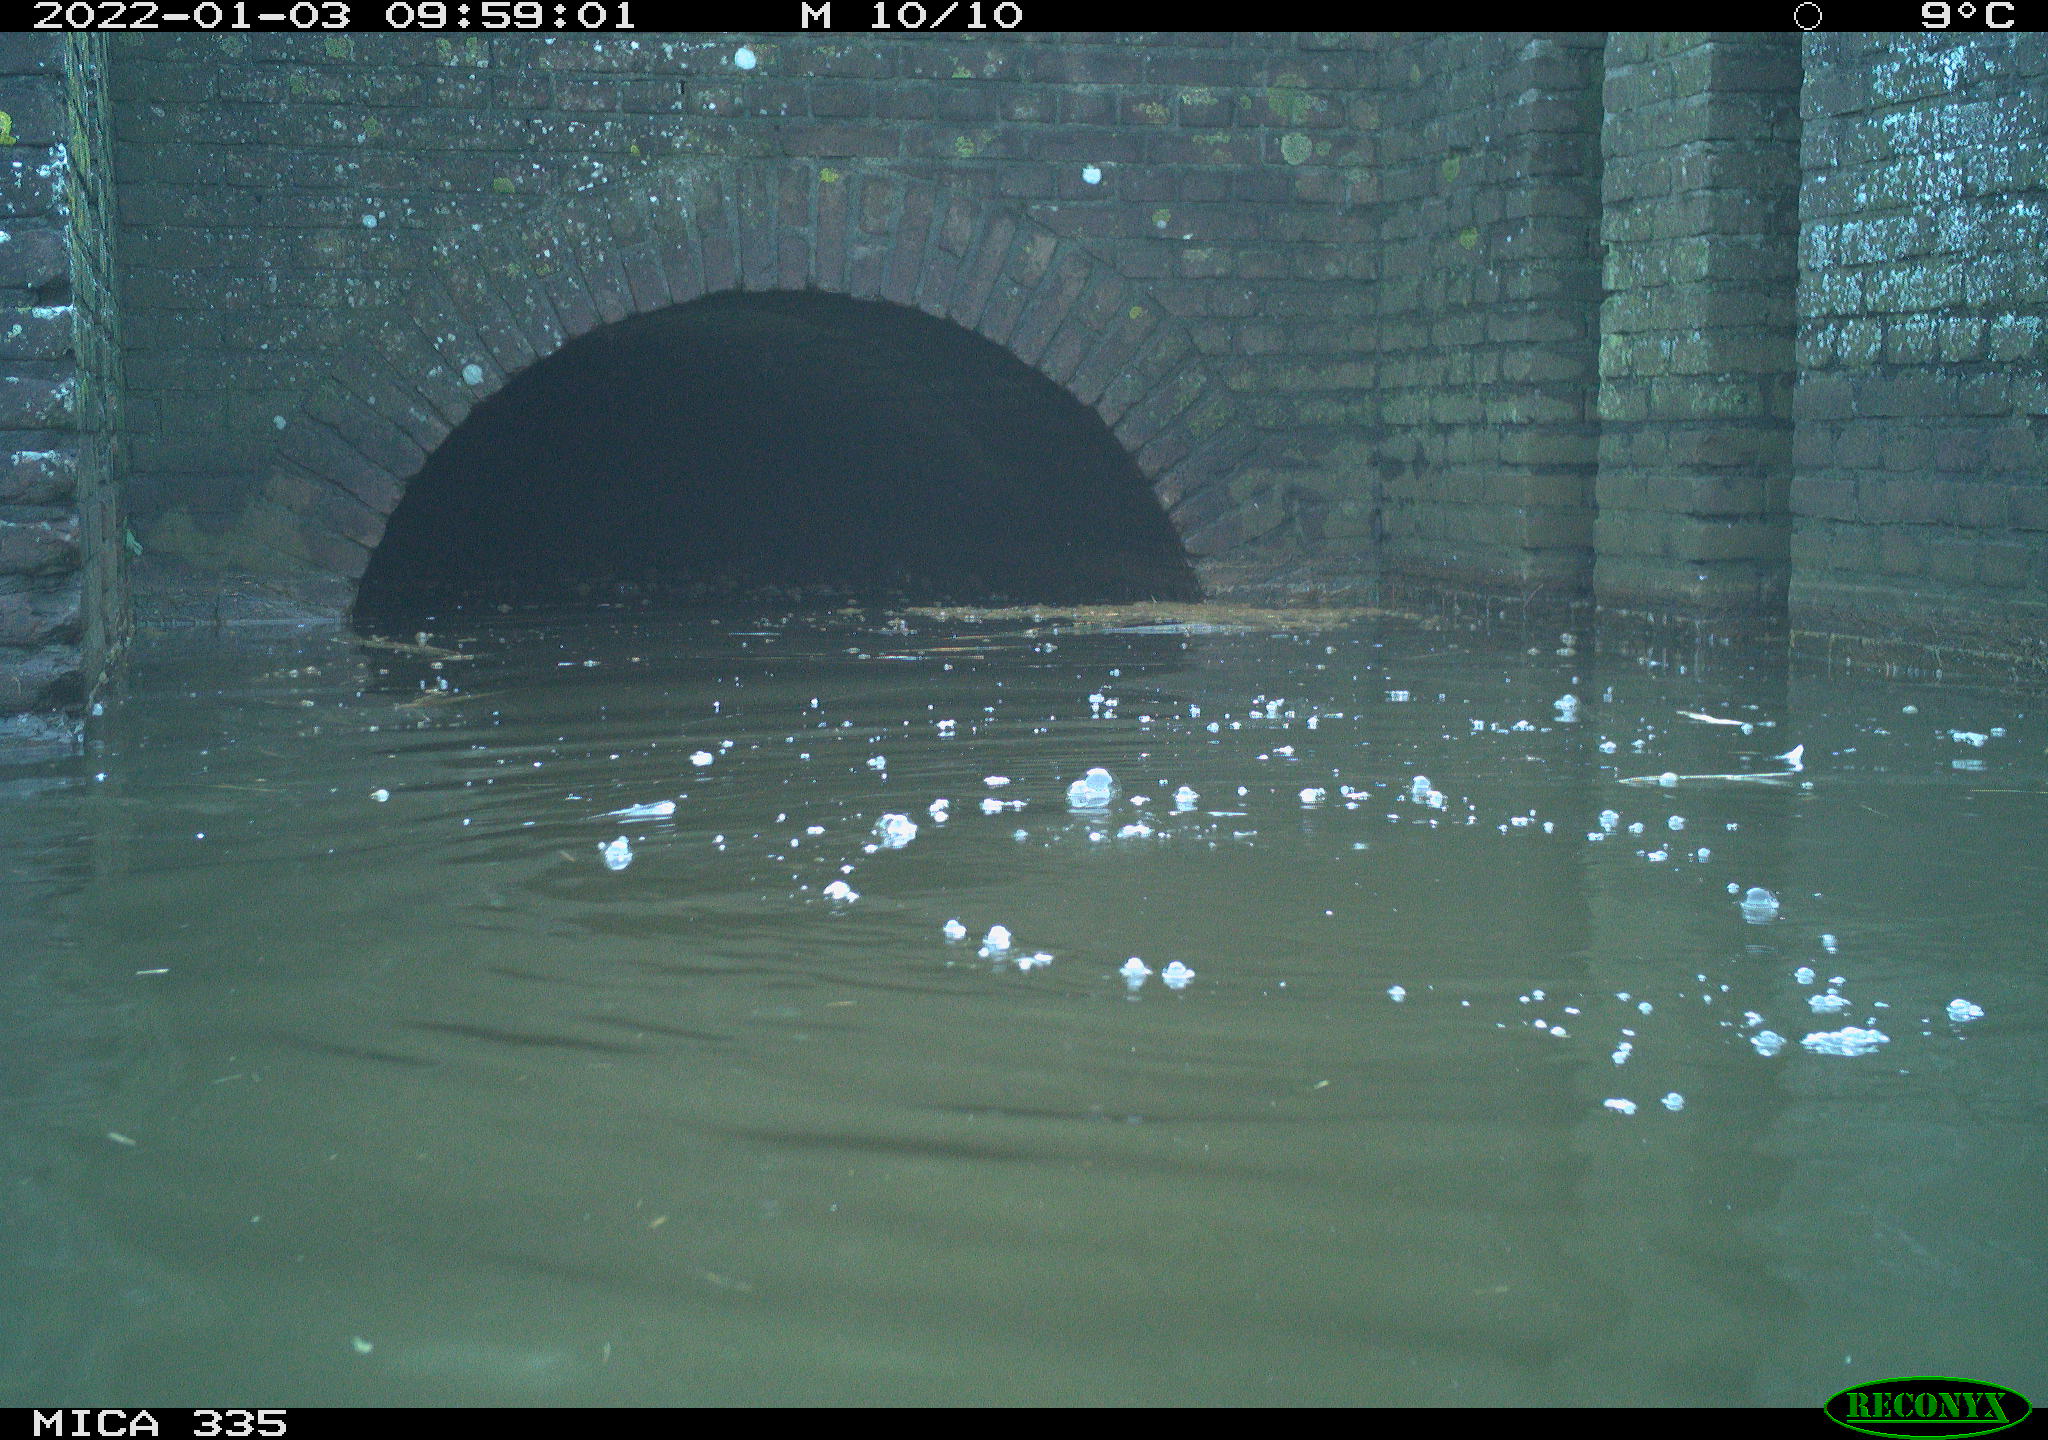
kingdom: Animalia
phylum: Chordata
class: Aves
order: Suliformes
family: Phalacrocoracidae
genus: Phalacrocorax
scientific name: Phalacrocorax carbo
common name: Great cormorant
